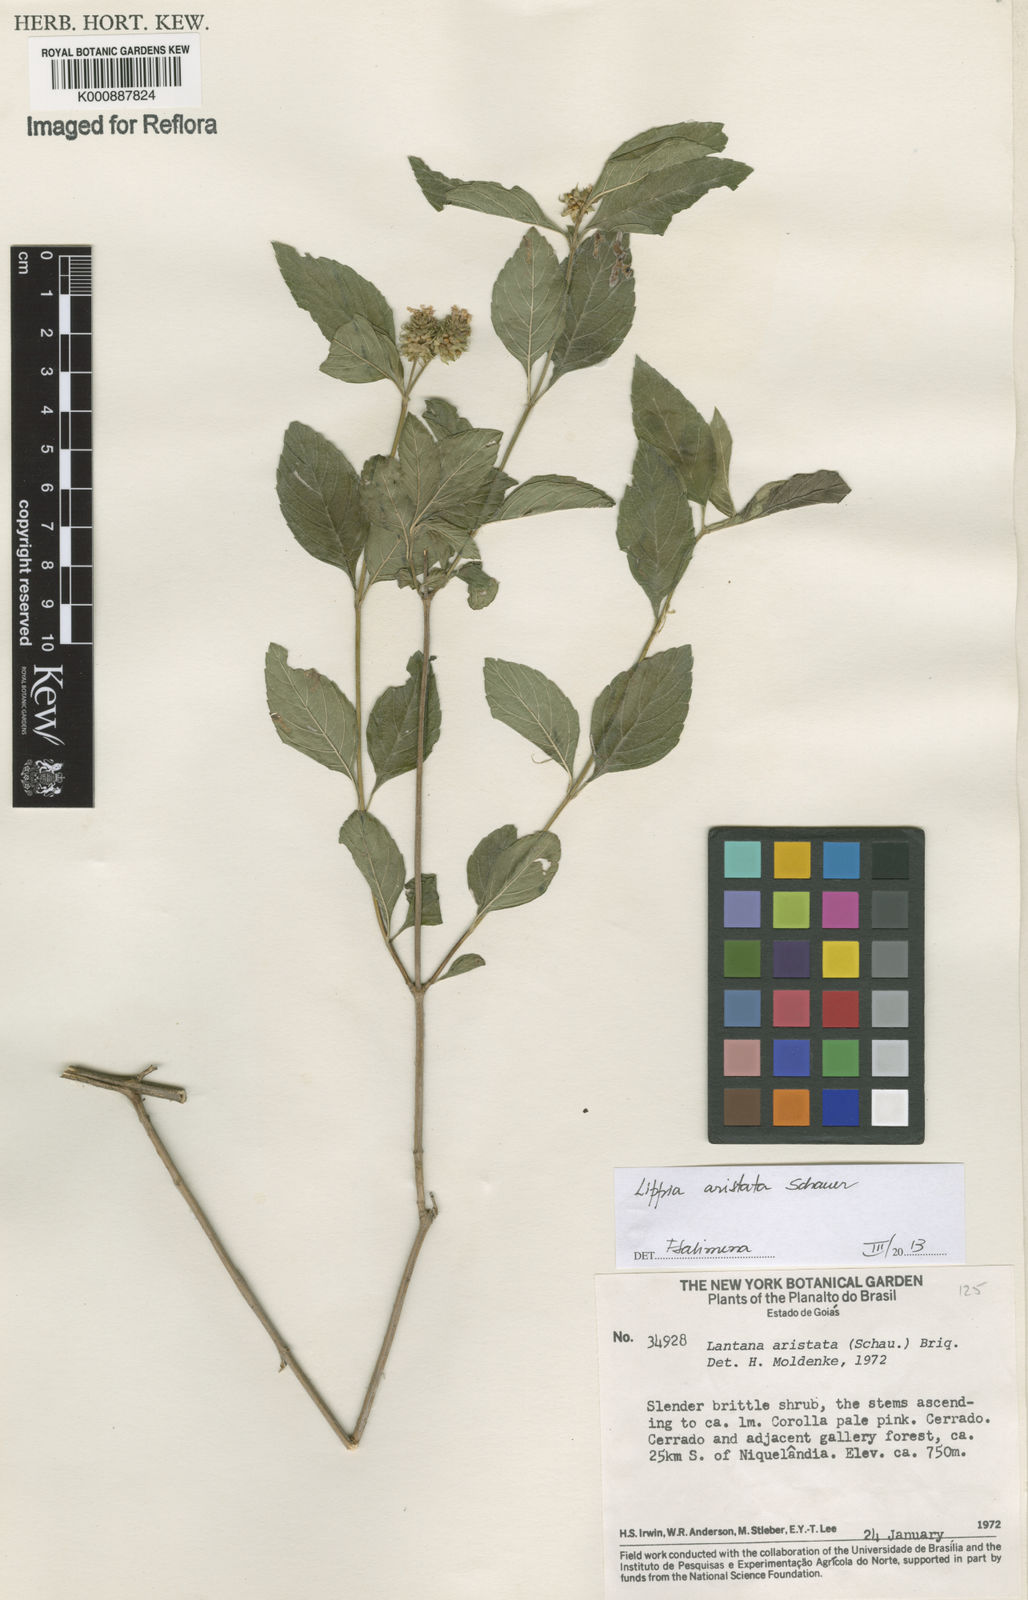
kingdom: Plantae
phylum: Tracheophyta
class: Magnoliopsida
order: Lamiales
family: Verbenaceae
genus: Lippia
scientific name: Lippia aristata
